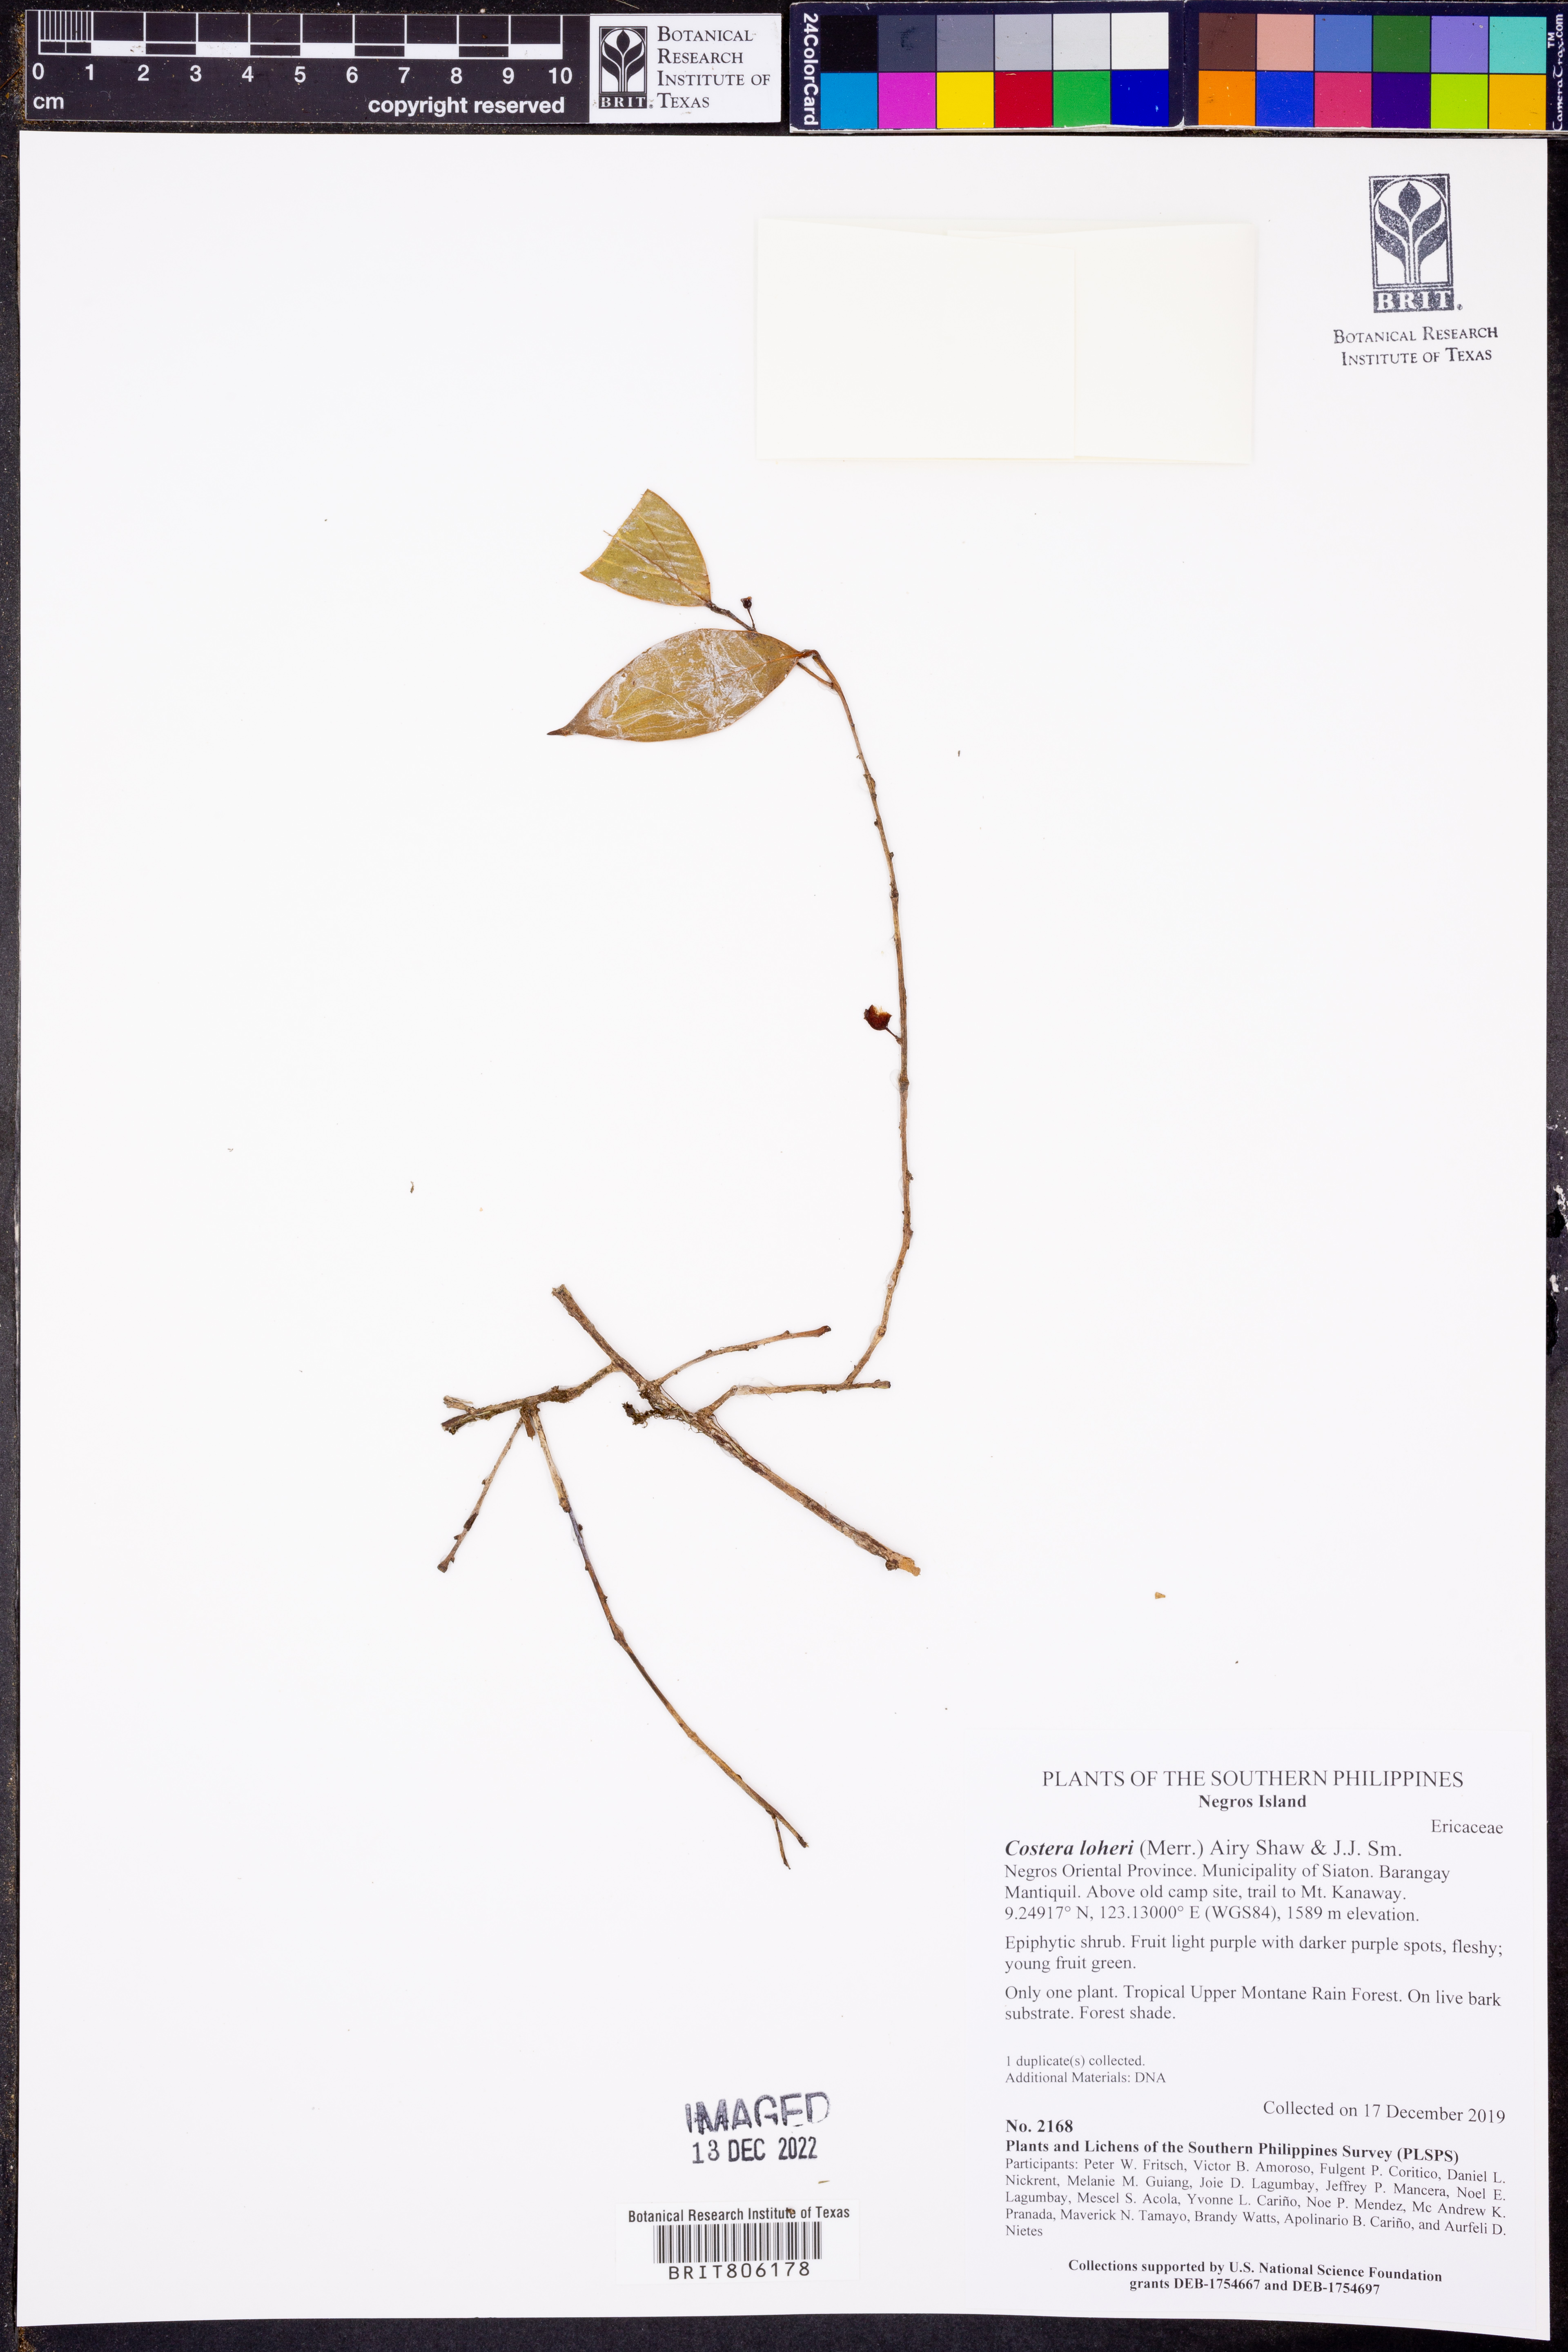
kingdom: Plantae
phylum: Tracheophyta
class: Magnoliopsida
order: Ericales
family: Ericaceae
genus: Costera
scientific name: Costera loheri
